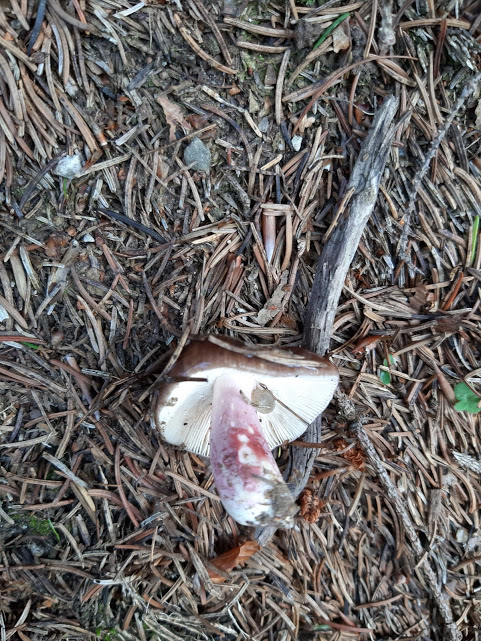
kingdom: Fungi
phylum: Basidiomycota
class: Agaricomycetes
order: Russulales
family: Russulaceae
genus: Russula
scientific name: Russula queletii
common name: Quélets skørhat
